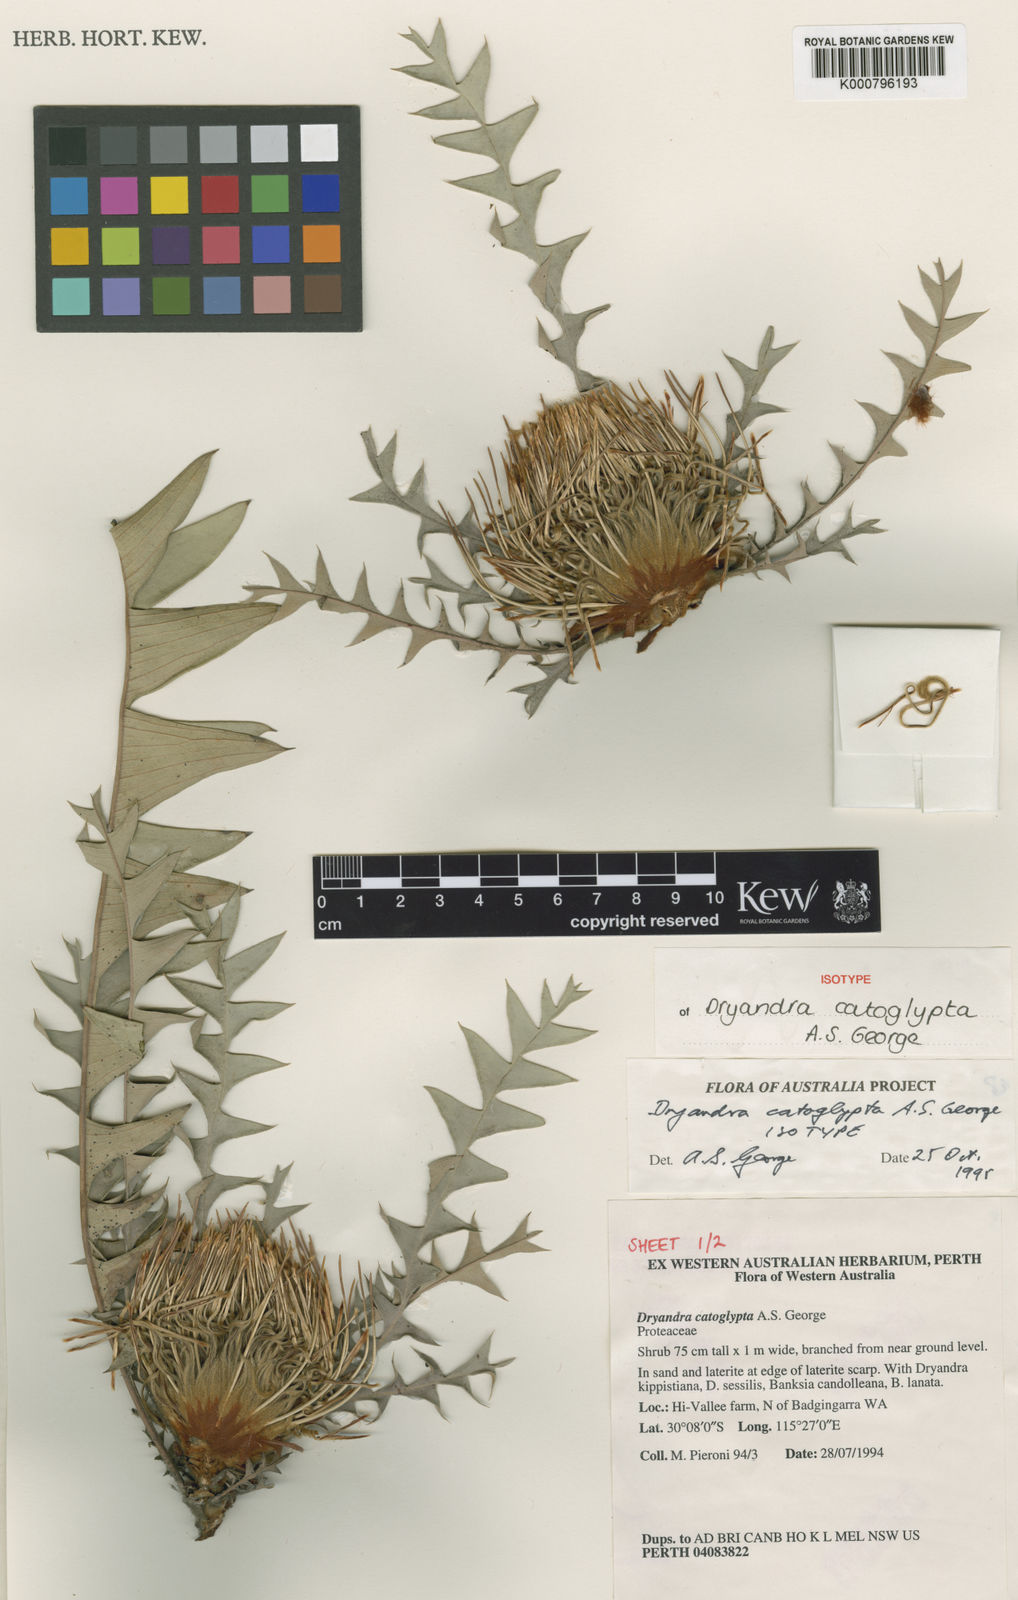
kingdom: Plantae
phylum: Tracheophyta
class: Magnoliopsida
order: Proteales
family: Proteaceae
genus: Banksia
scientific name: Banksia catoglypta
